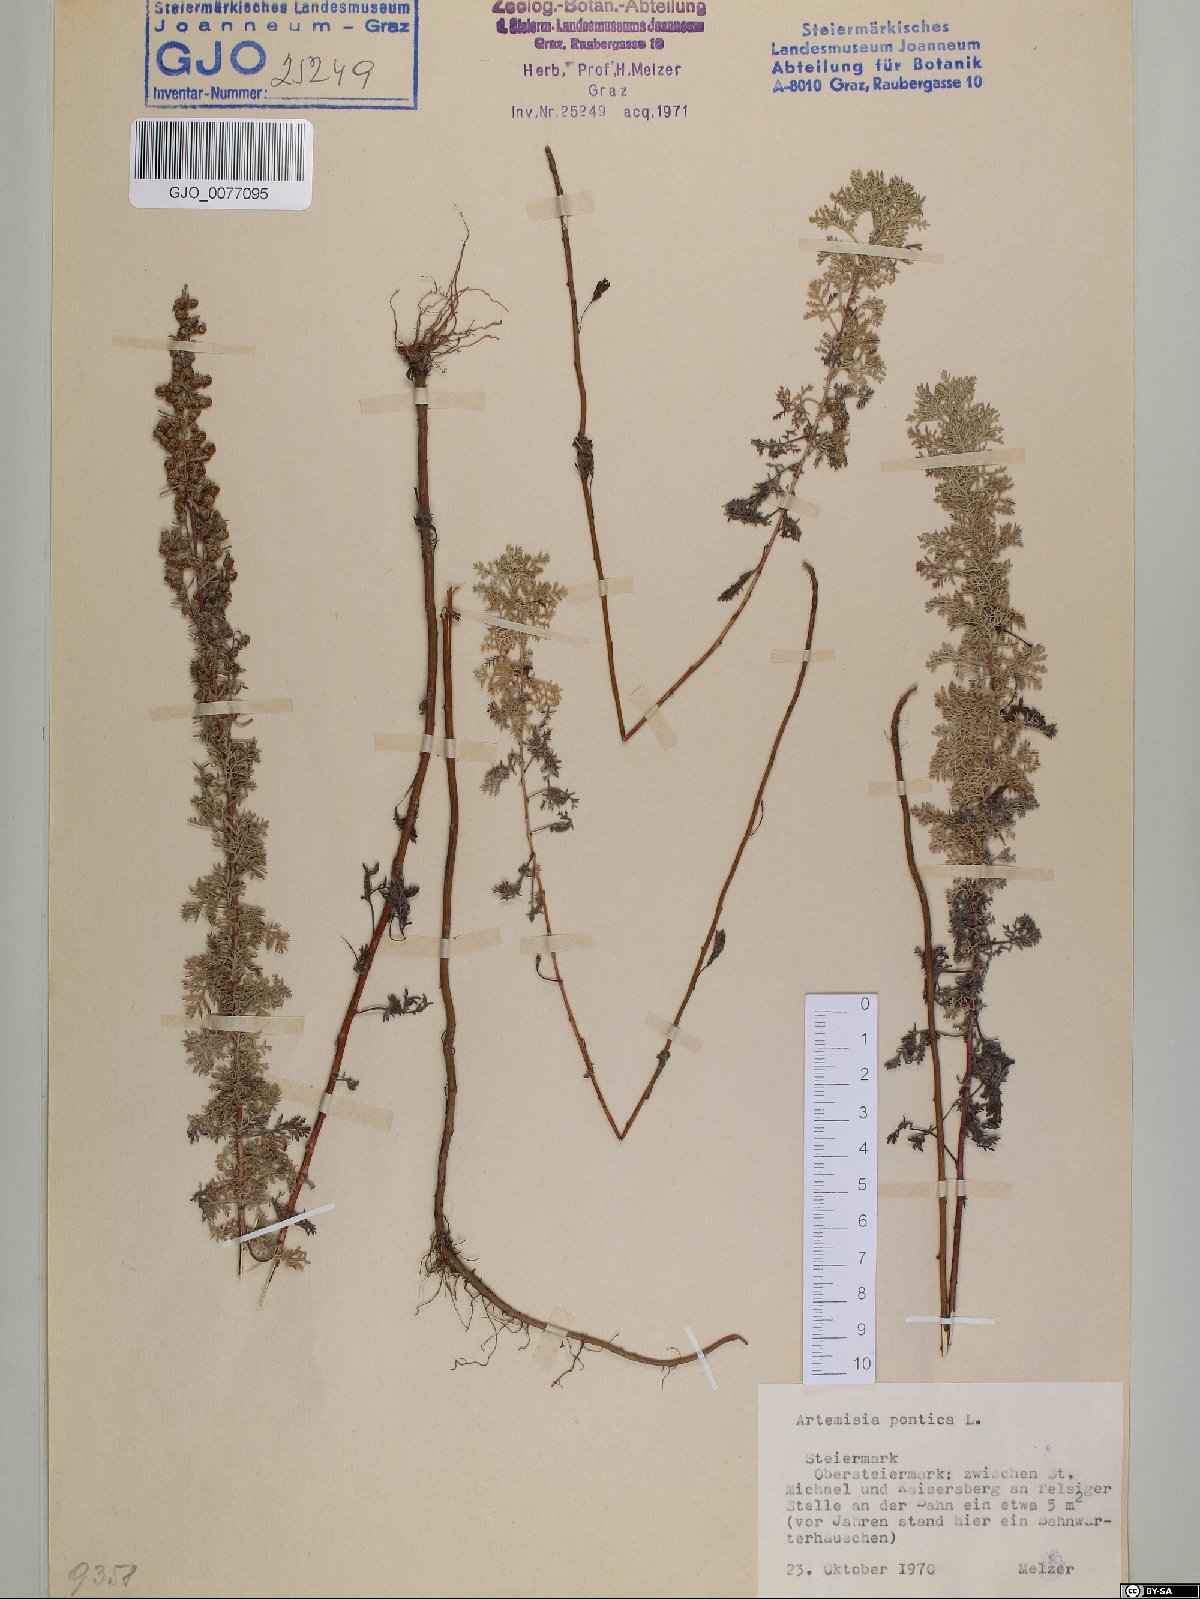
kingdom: Plantae
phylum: Tracheophyta
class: Magnoliopsida
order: Asterales
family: Asteraceae
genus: Artemisia
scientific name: Artemisia pontica
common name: Roman wormwood
